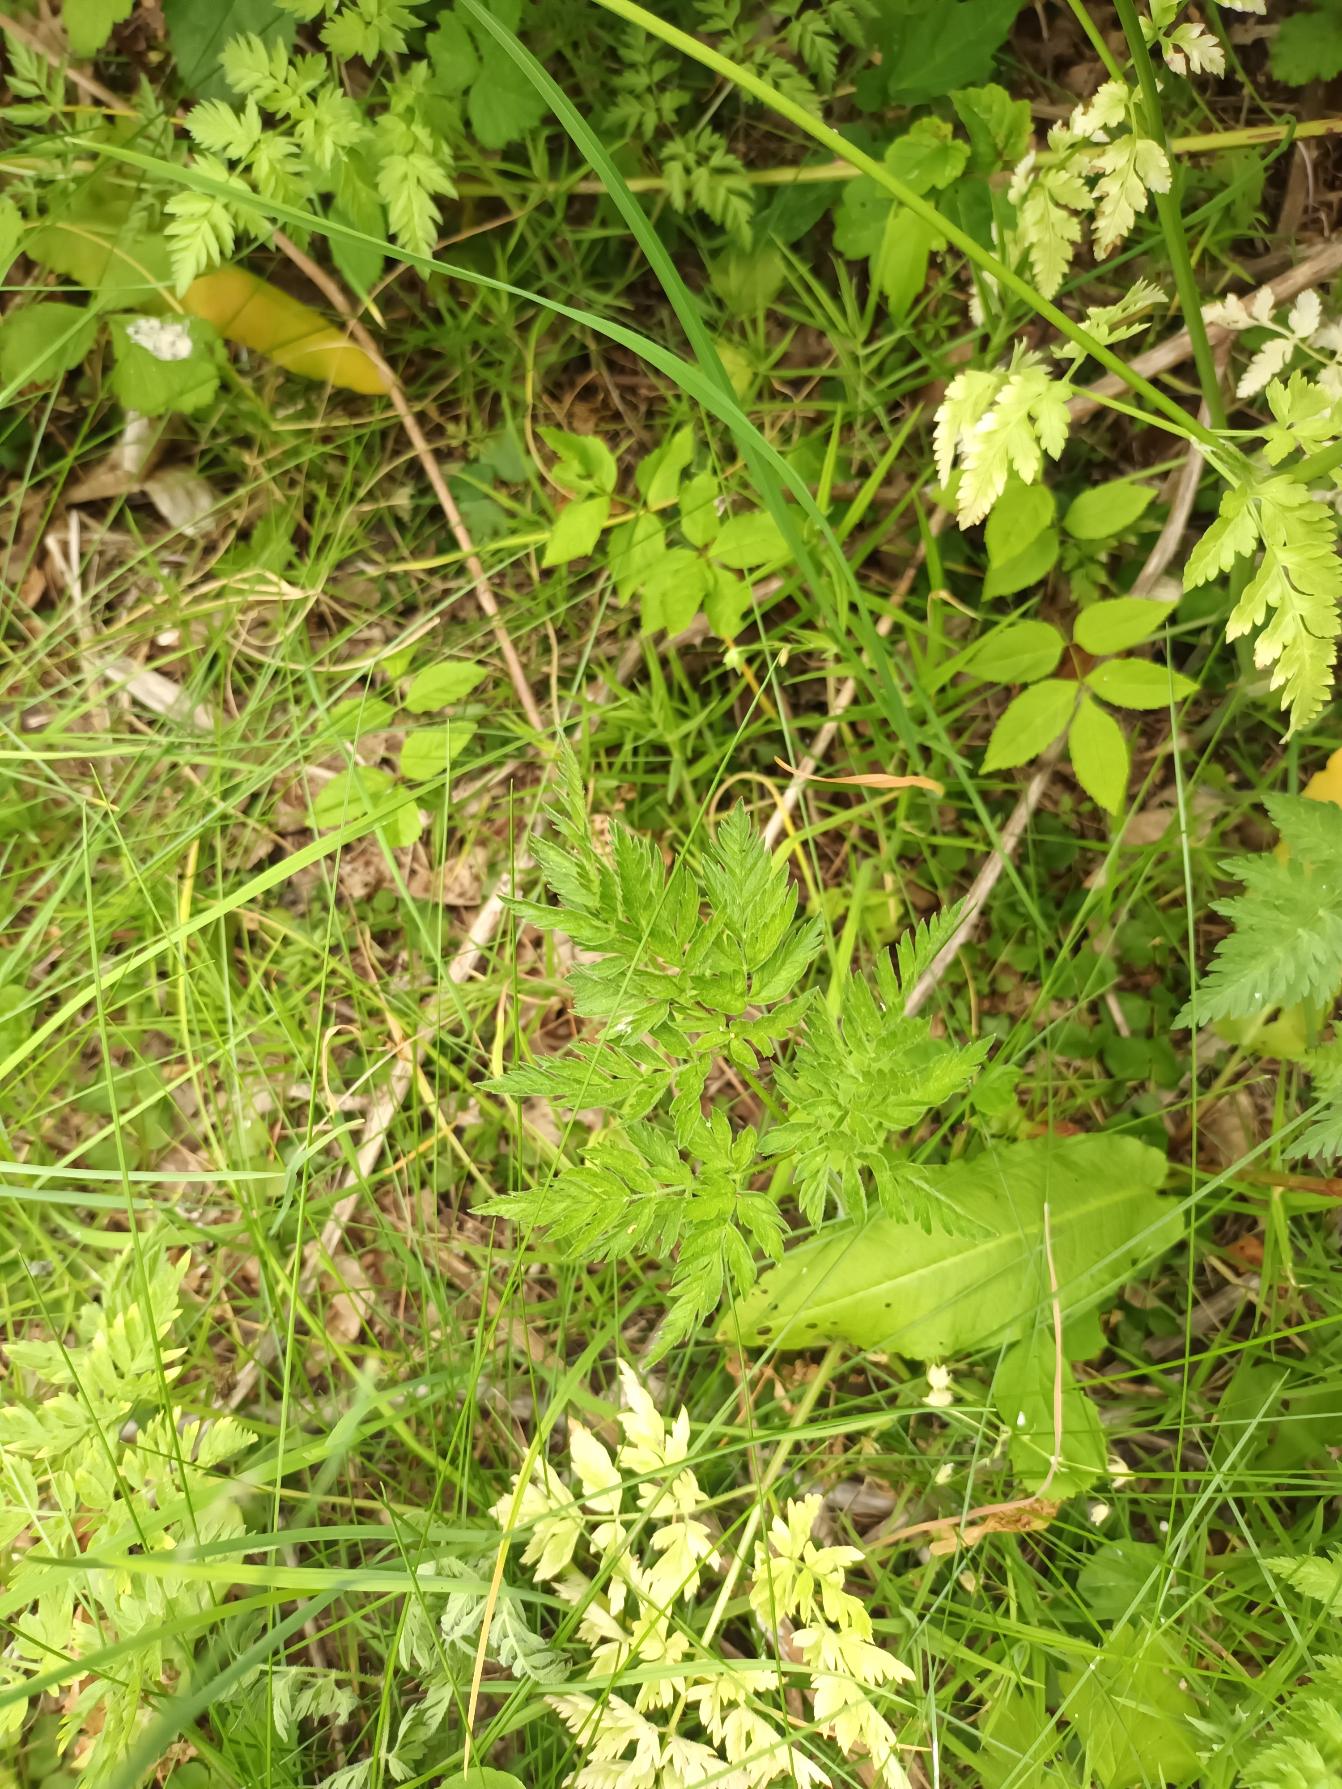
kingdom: Plantae
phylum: Tracheophyta
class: Magnoliopsida
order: Apiales
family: Apiaceae
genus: Anthriscus
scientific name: Anthriscus sylvestris
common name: Vild kørvel
